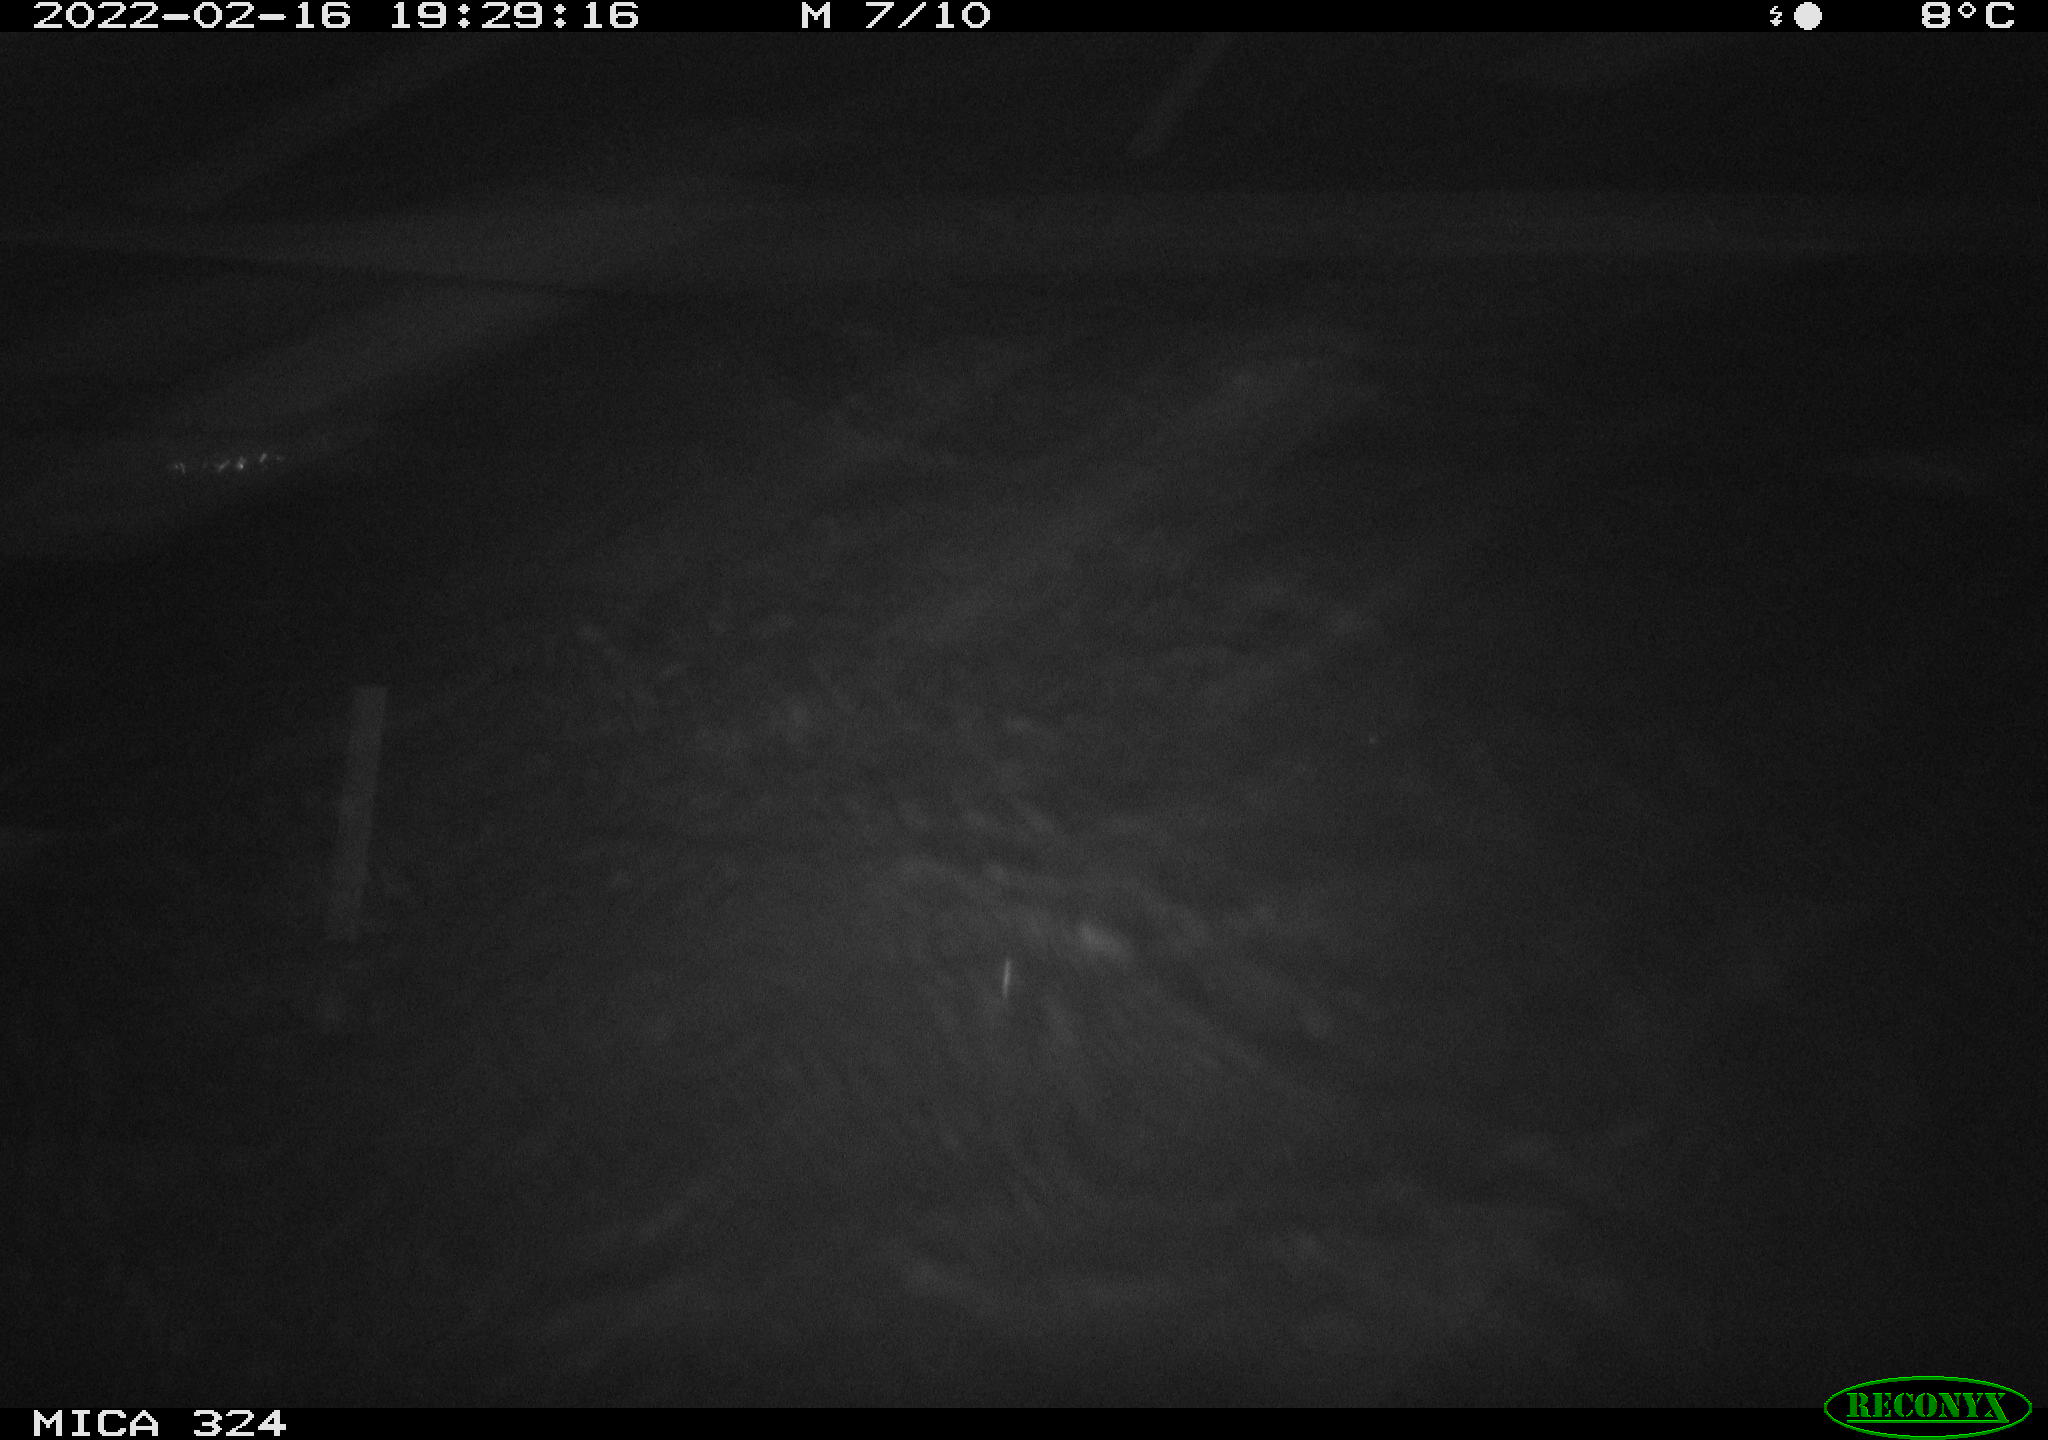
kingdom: Animalia
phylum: Chordata
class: Mammalia
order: Rodentia
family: Cricetidae
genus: Ondatra
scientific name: Ondatra zibethicus
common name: Muskrat
